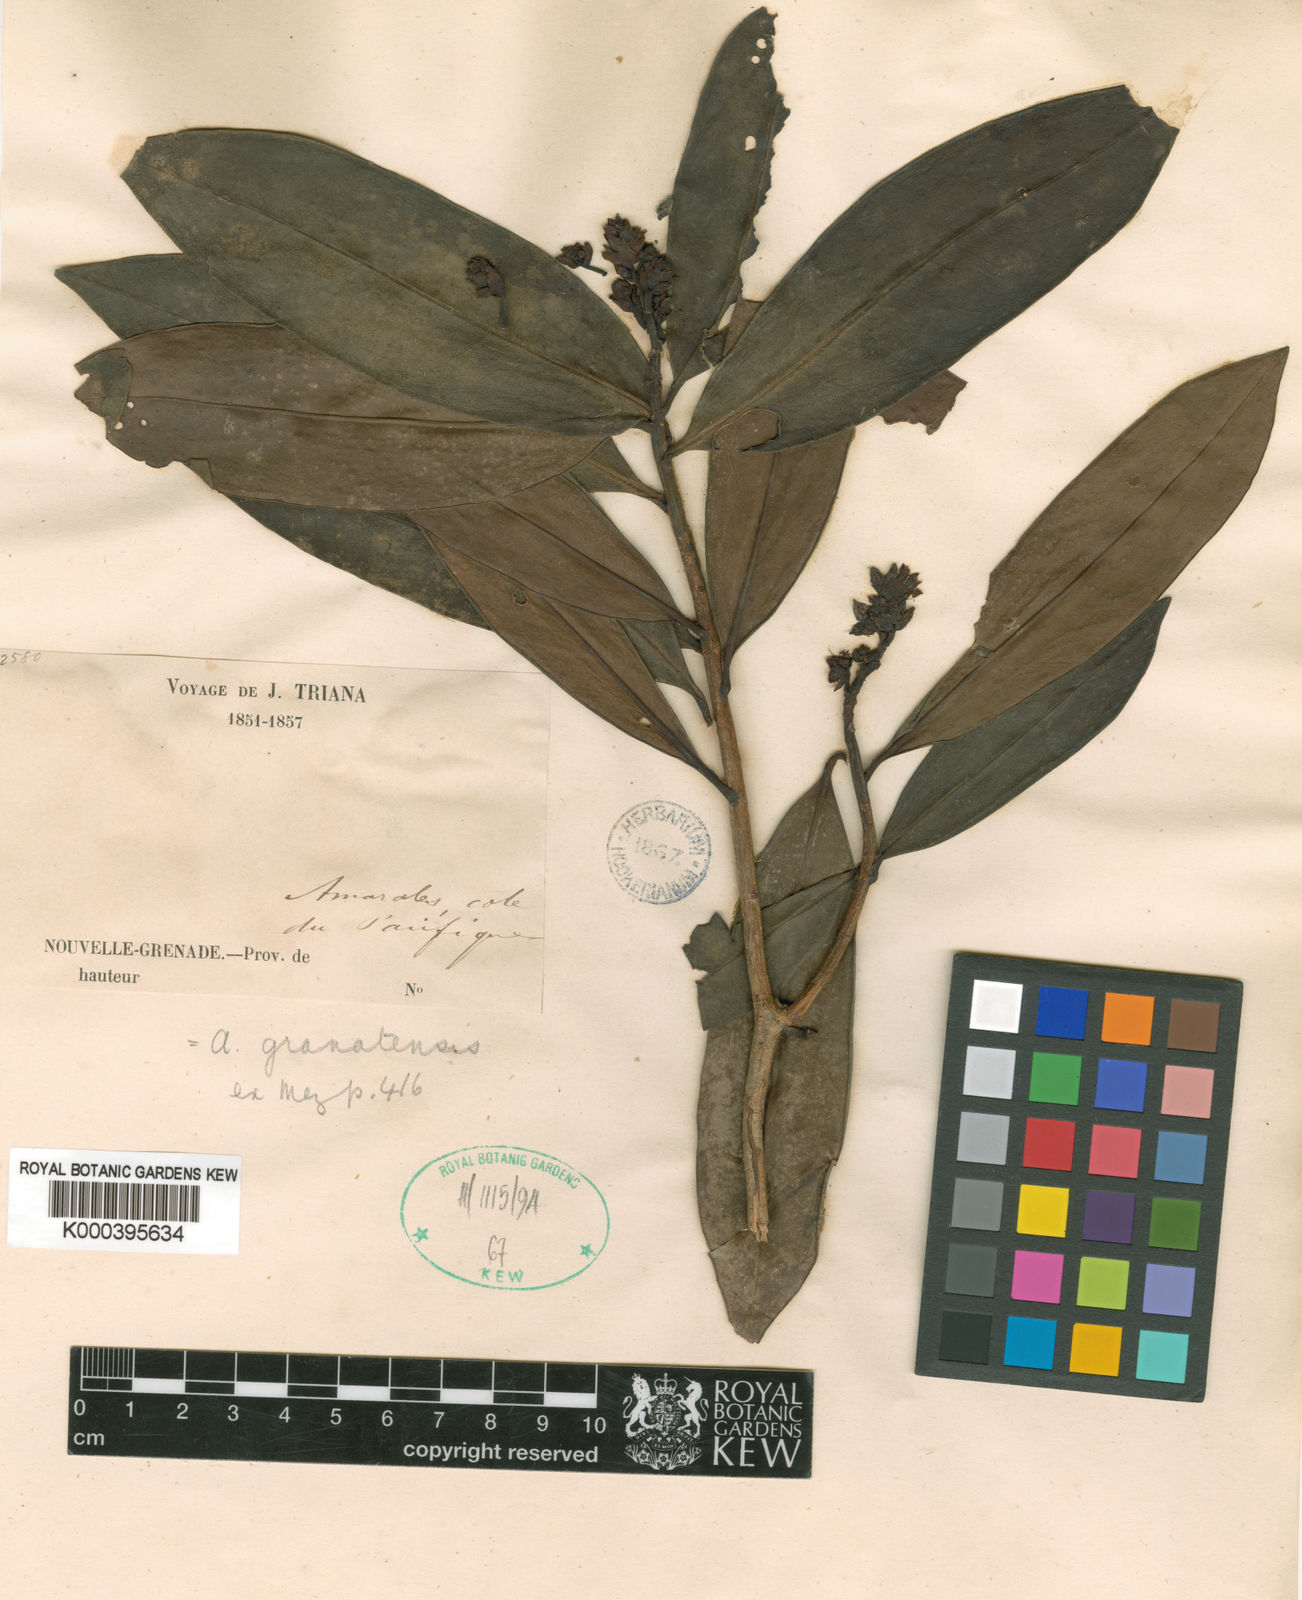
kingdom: Plantae
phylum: Tracheophyta
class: Magnoliopsida
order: Ericales
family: Primulaceae
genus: Ardisia
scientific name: Ardisia granatensis
